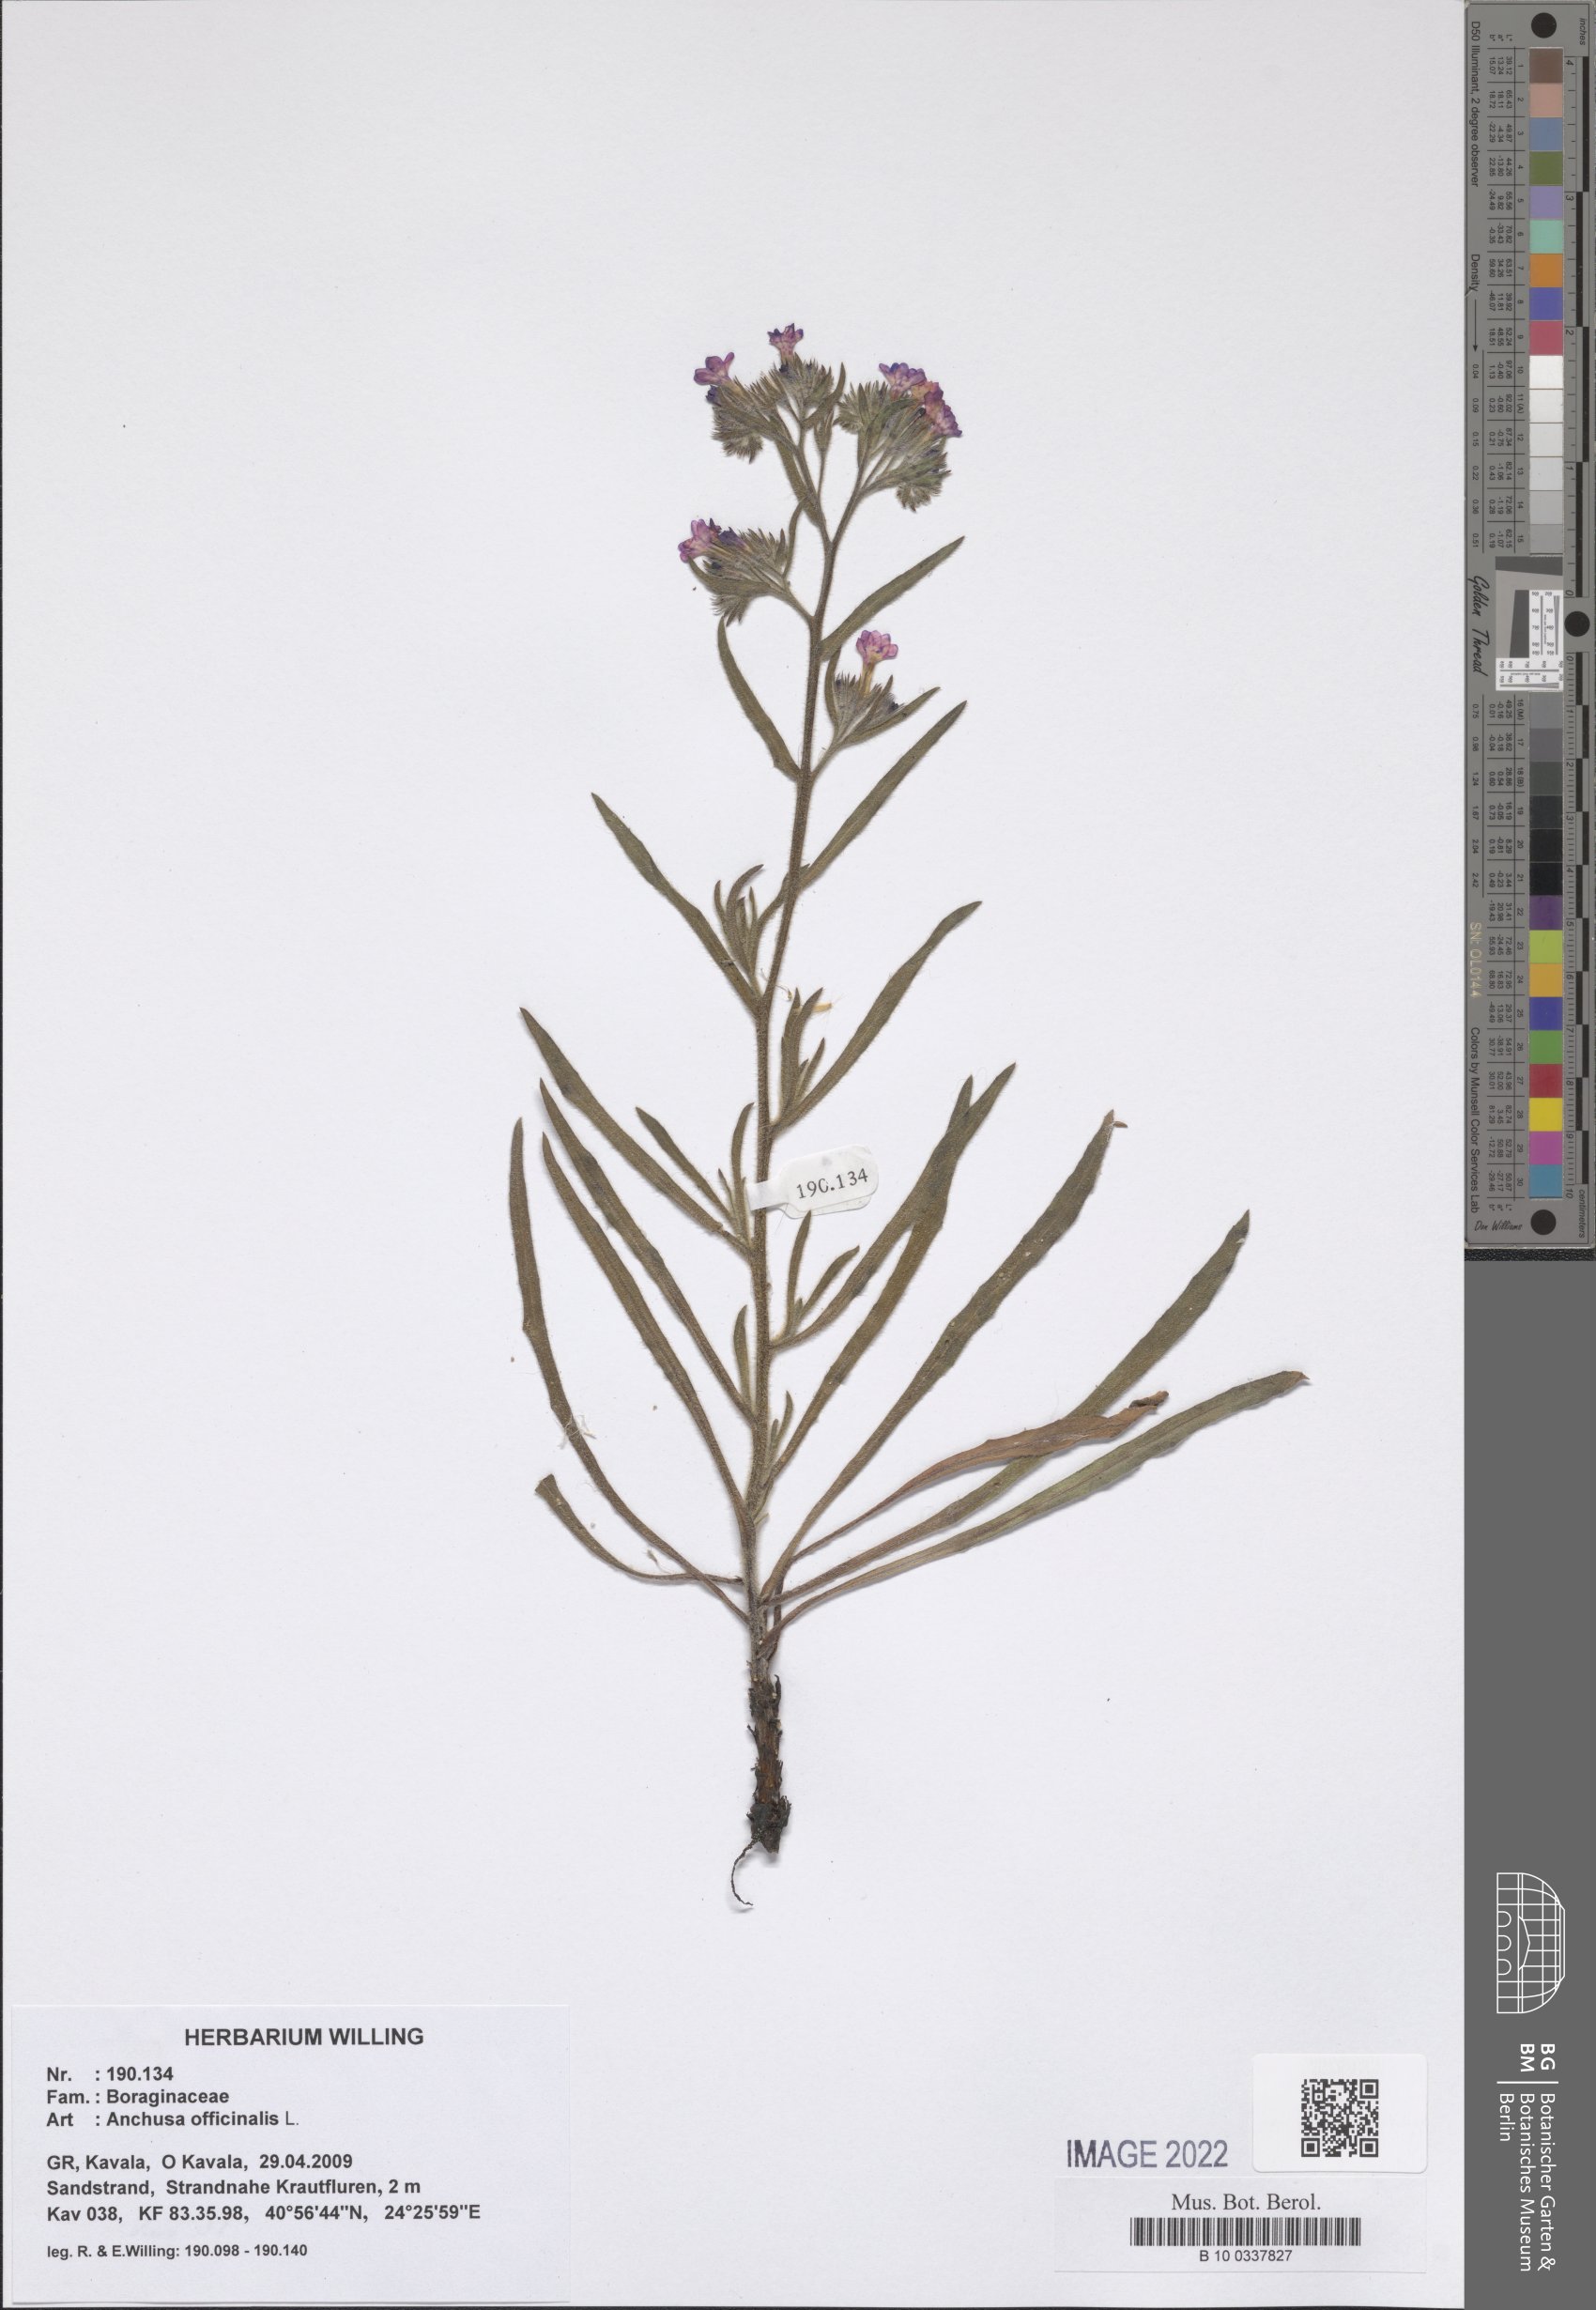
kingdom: Plantae
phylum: Tracheophyta
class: Magnoliopsida
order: Boraginales
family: Boraginaceae
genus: Anchusa
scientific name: Anchusa officinalis
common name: Alkanet
